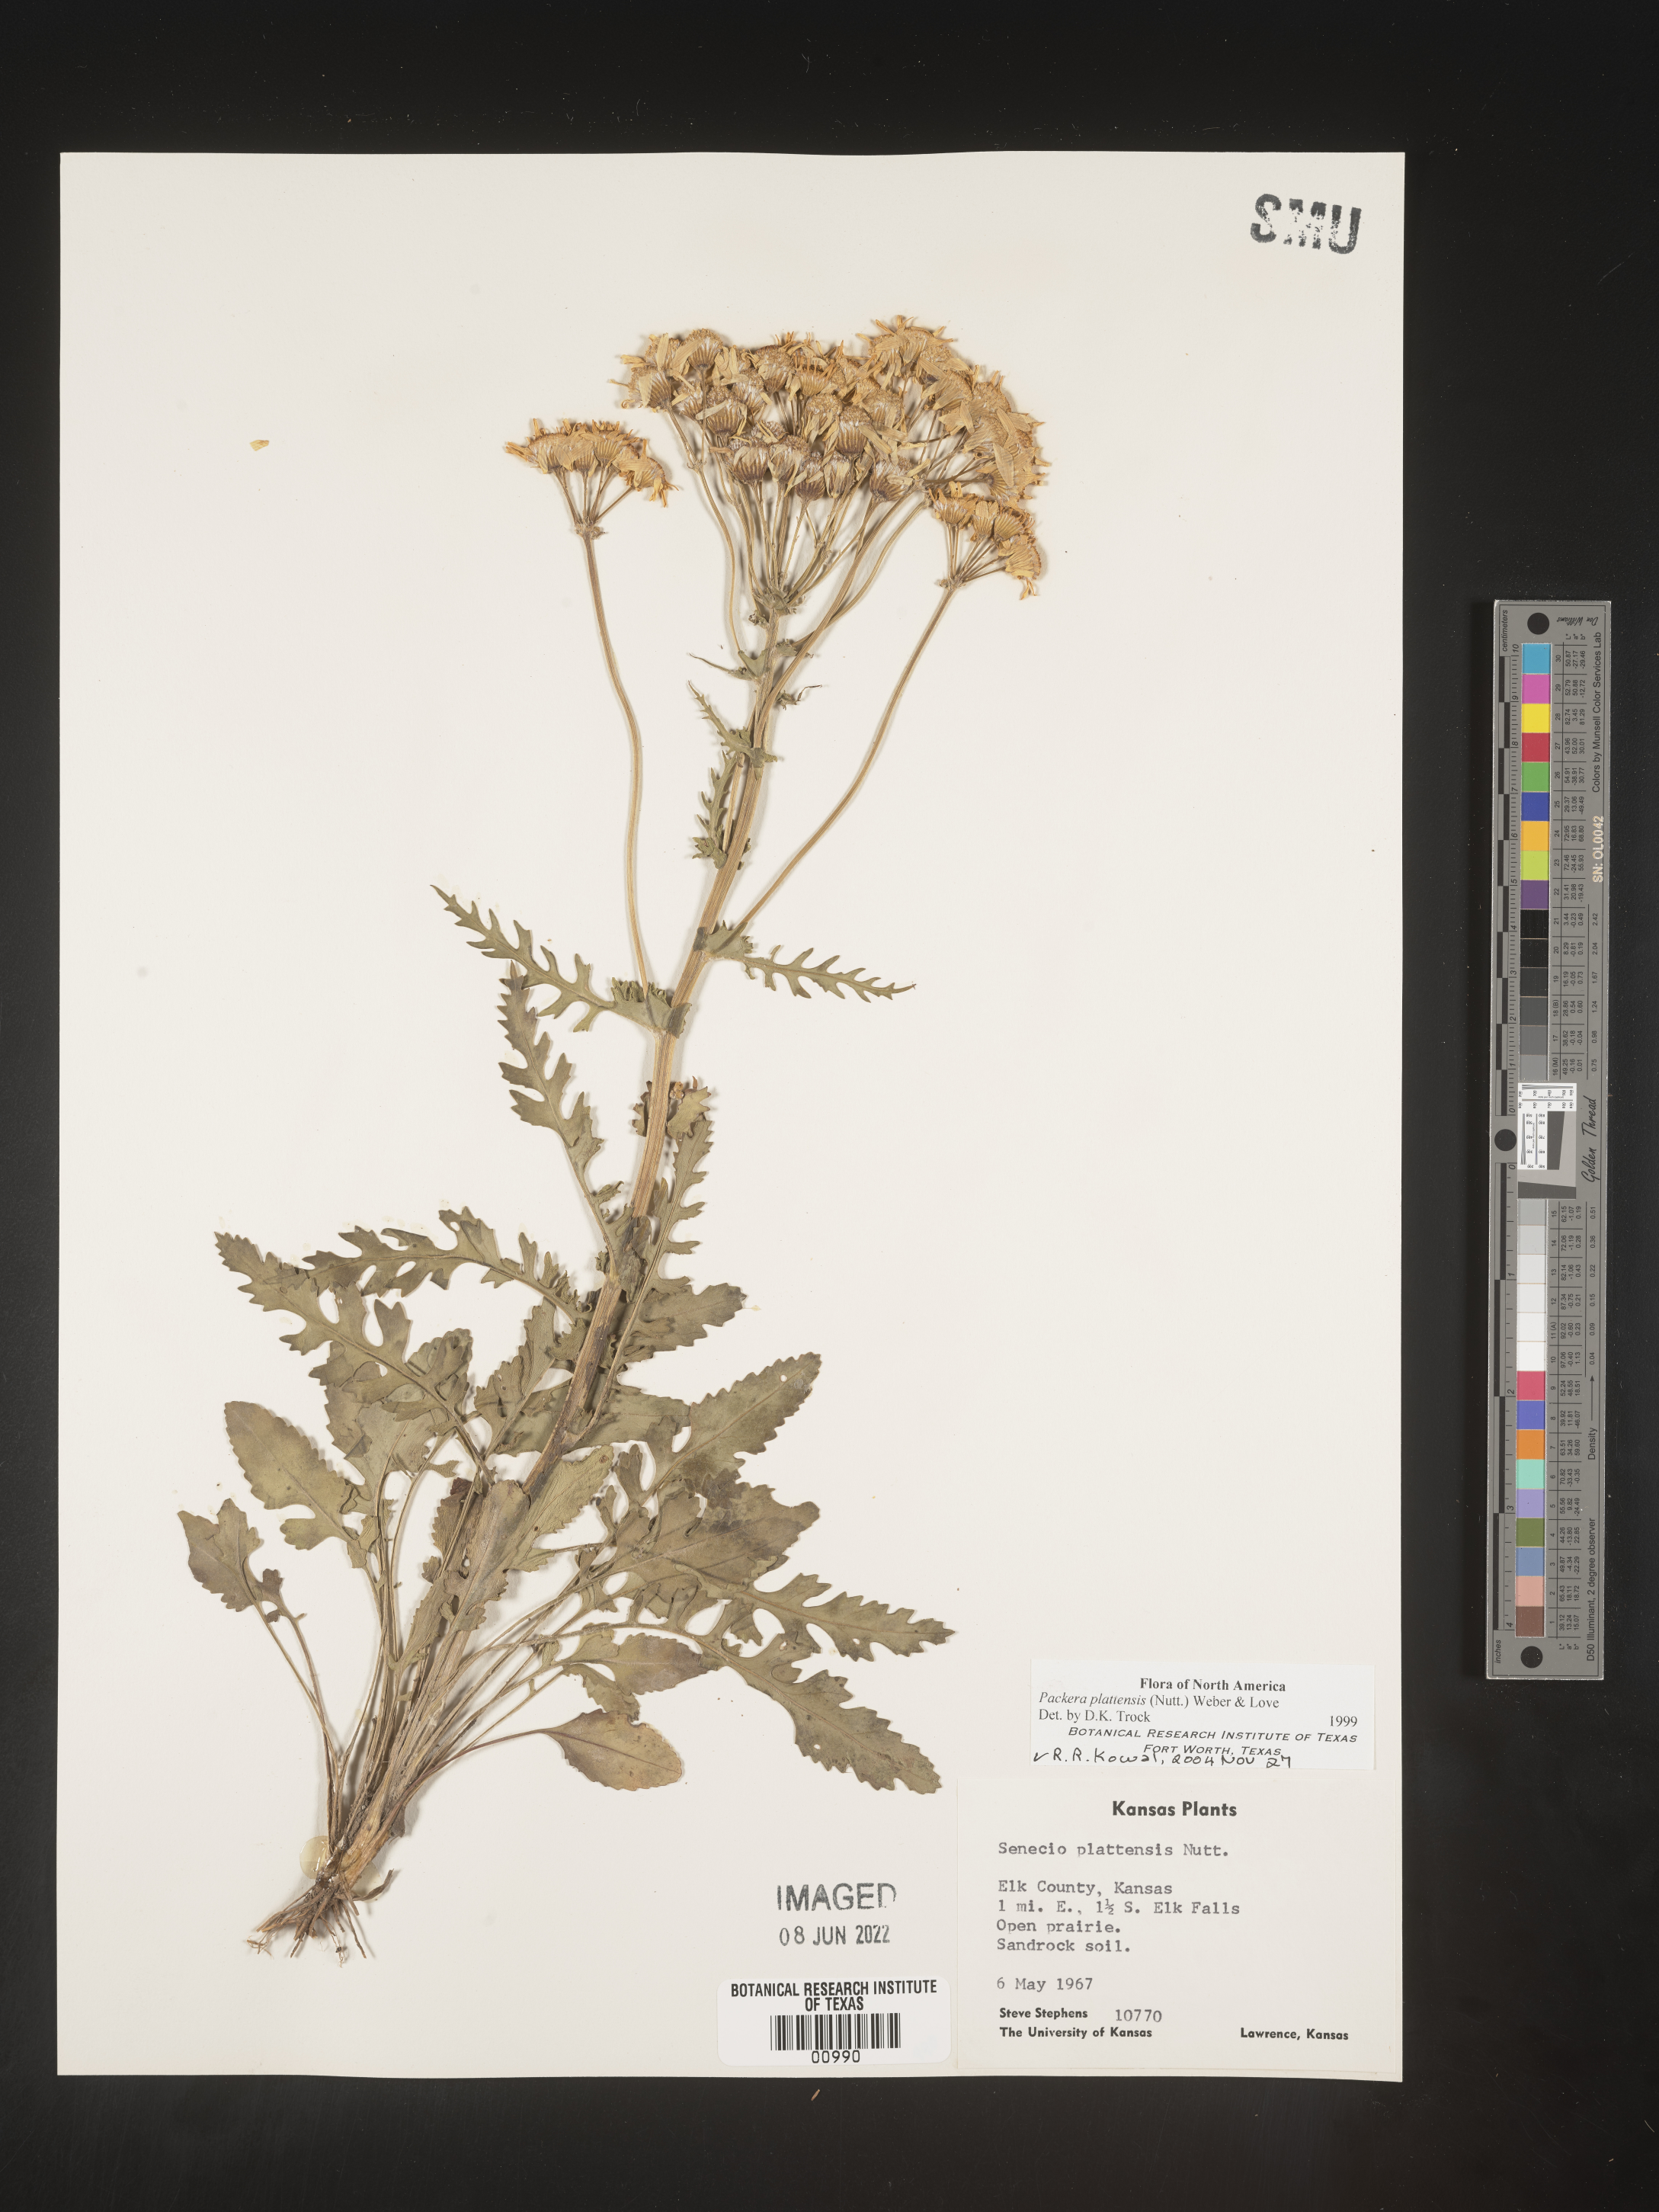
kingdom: Plantae
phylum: Tracheophyta
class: Magnoliopsida
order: Asterales
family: Asteraceae
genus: Packera
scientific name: Packera plattensis
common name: Prairie groundsel
